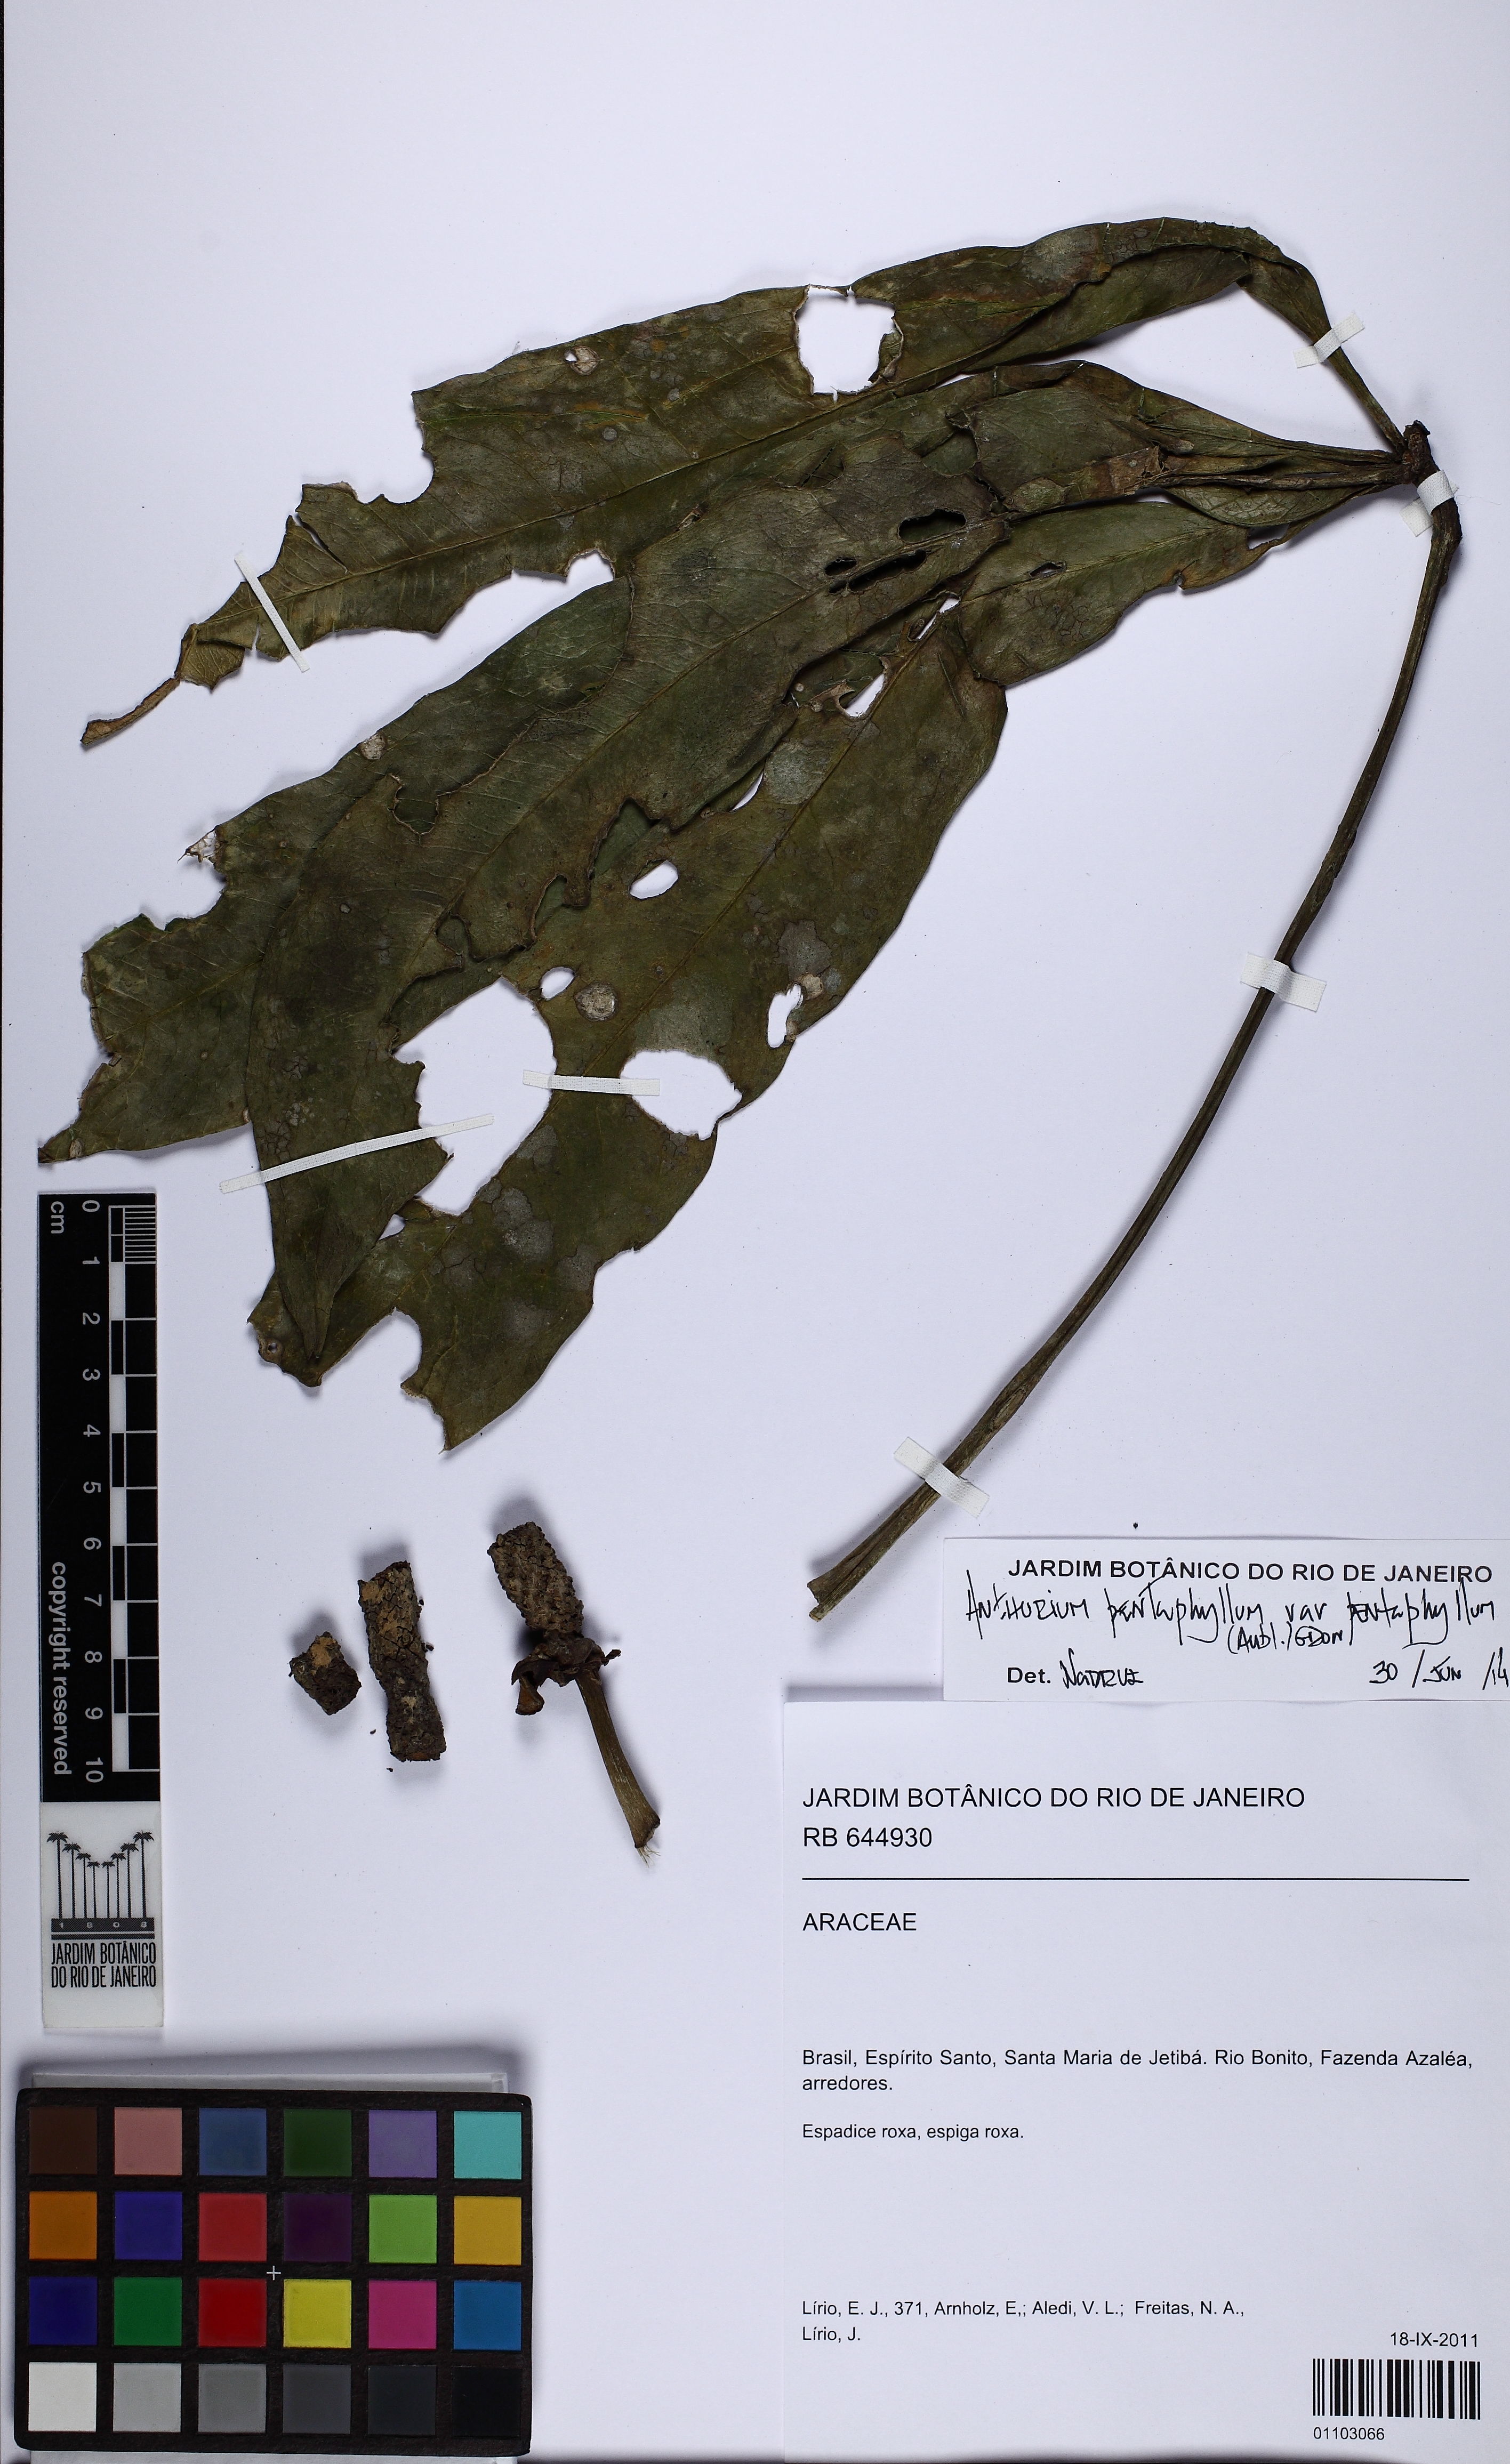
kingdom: Plantae
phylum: Tracheophyta
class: Liliopsida
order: Alismatales
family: Araceae
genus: Anthurium
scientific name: Anthurium pentaphyllum
